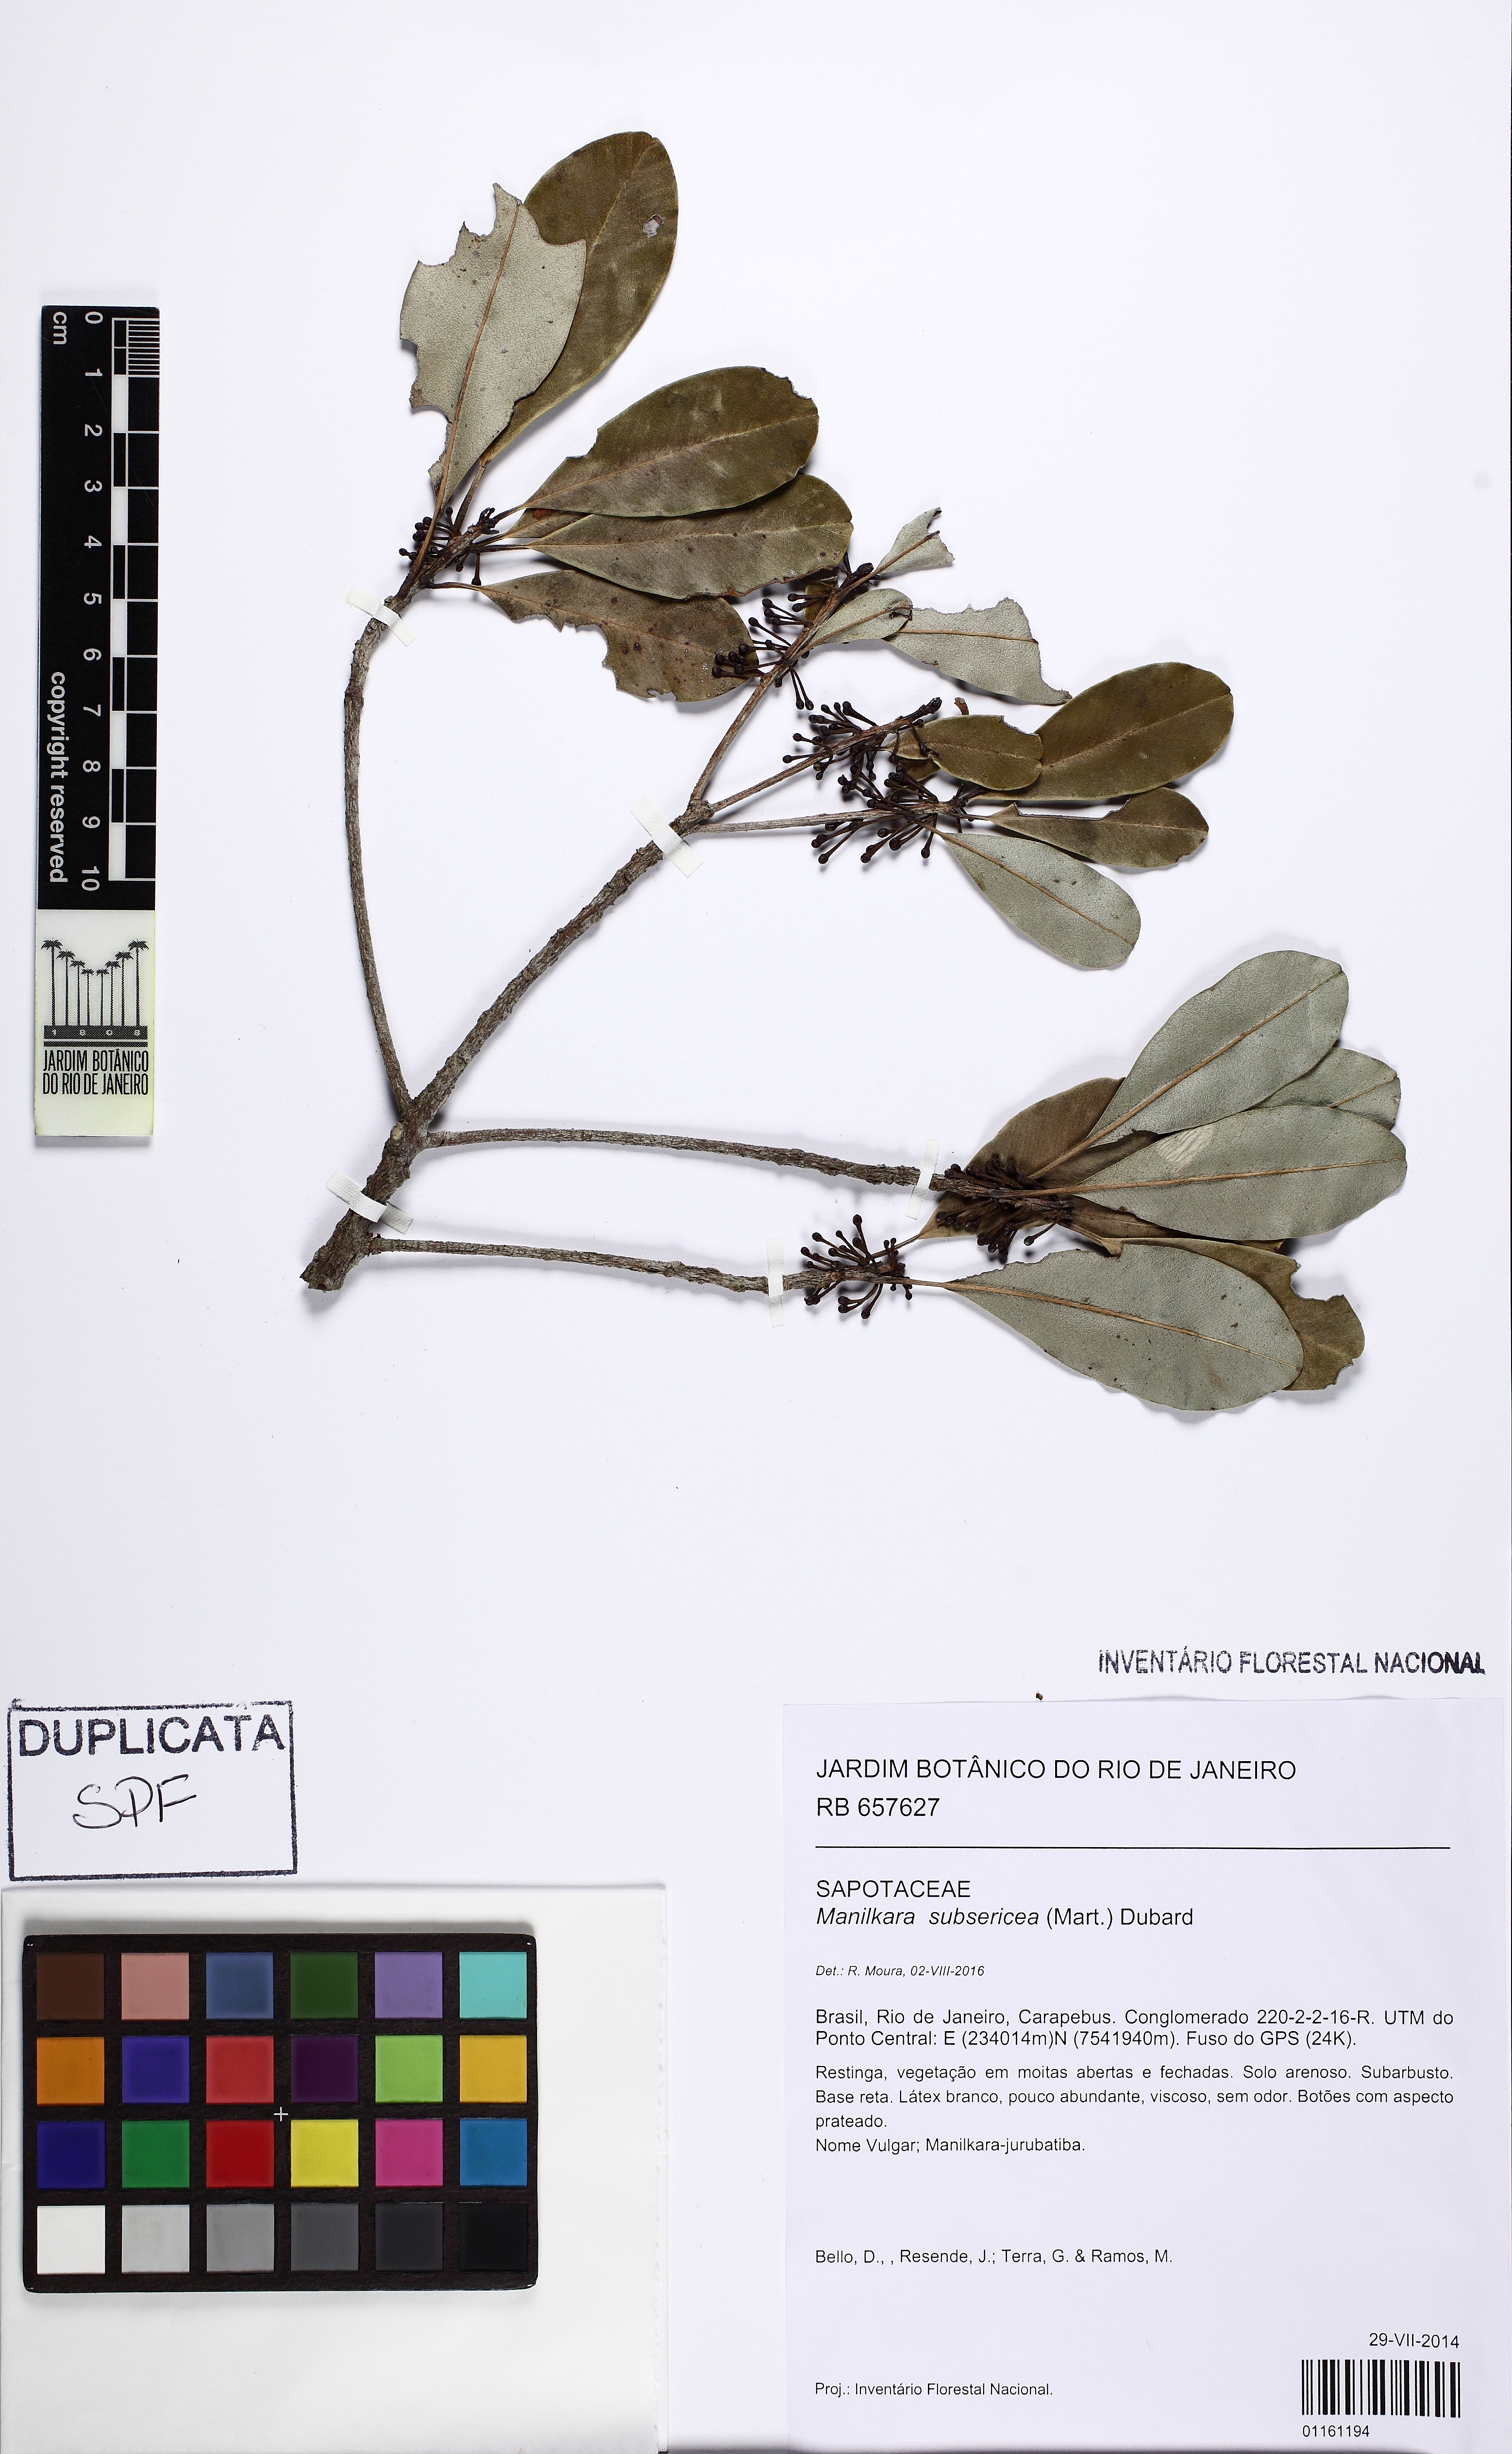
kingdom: Plantae
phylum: Tracheophyta
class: Magnoliopsida
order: Ericales
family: Sapotaceae
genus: Manilkara
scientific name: Manilkara subsericea
